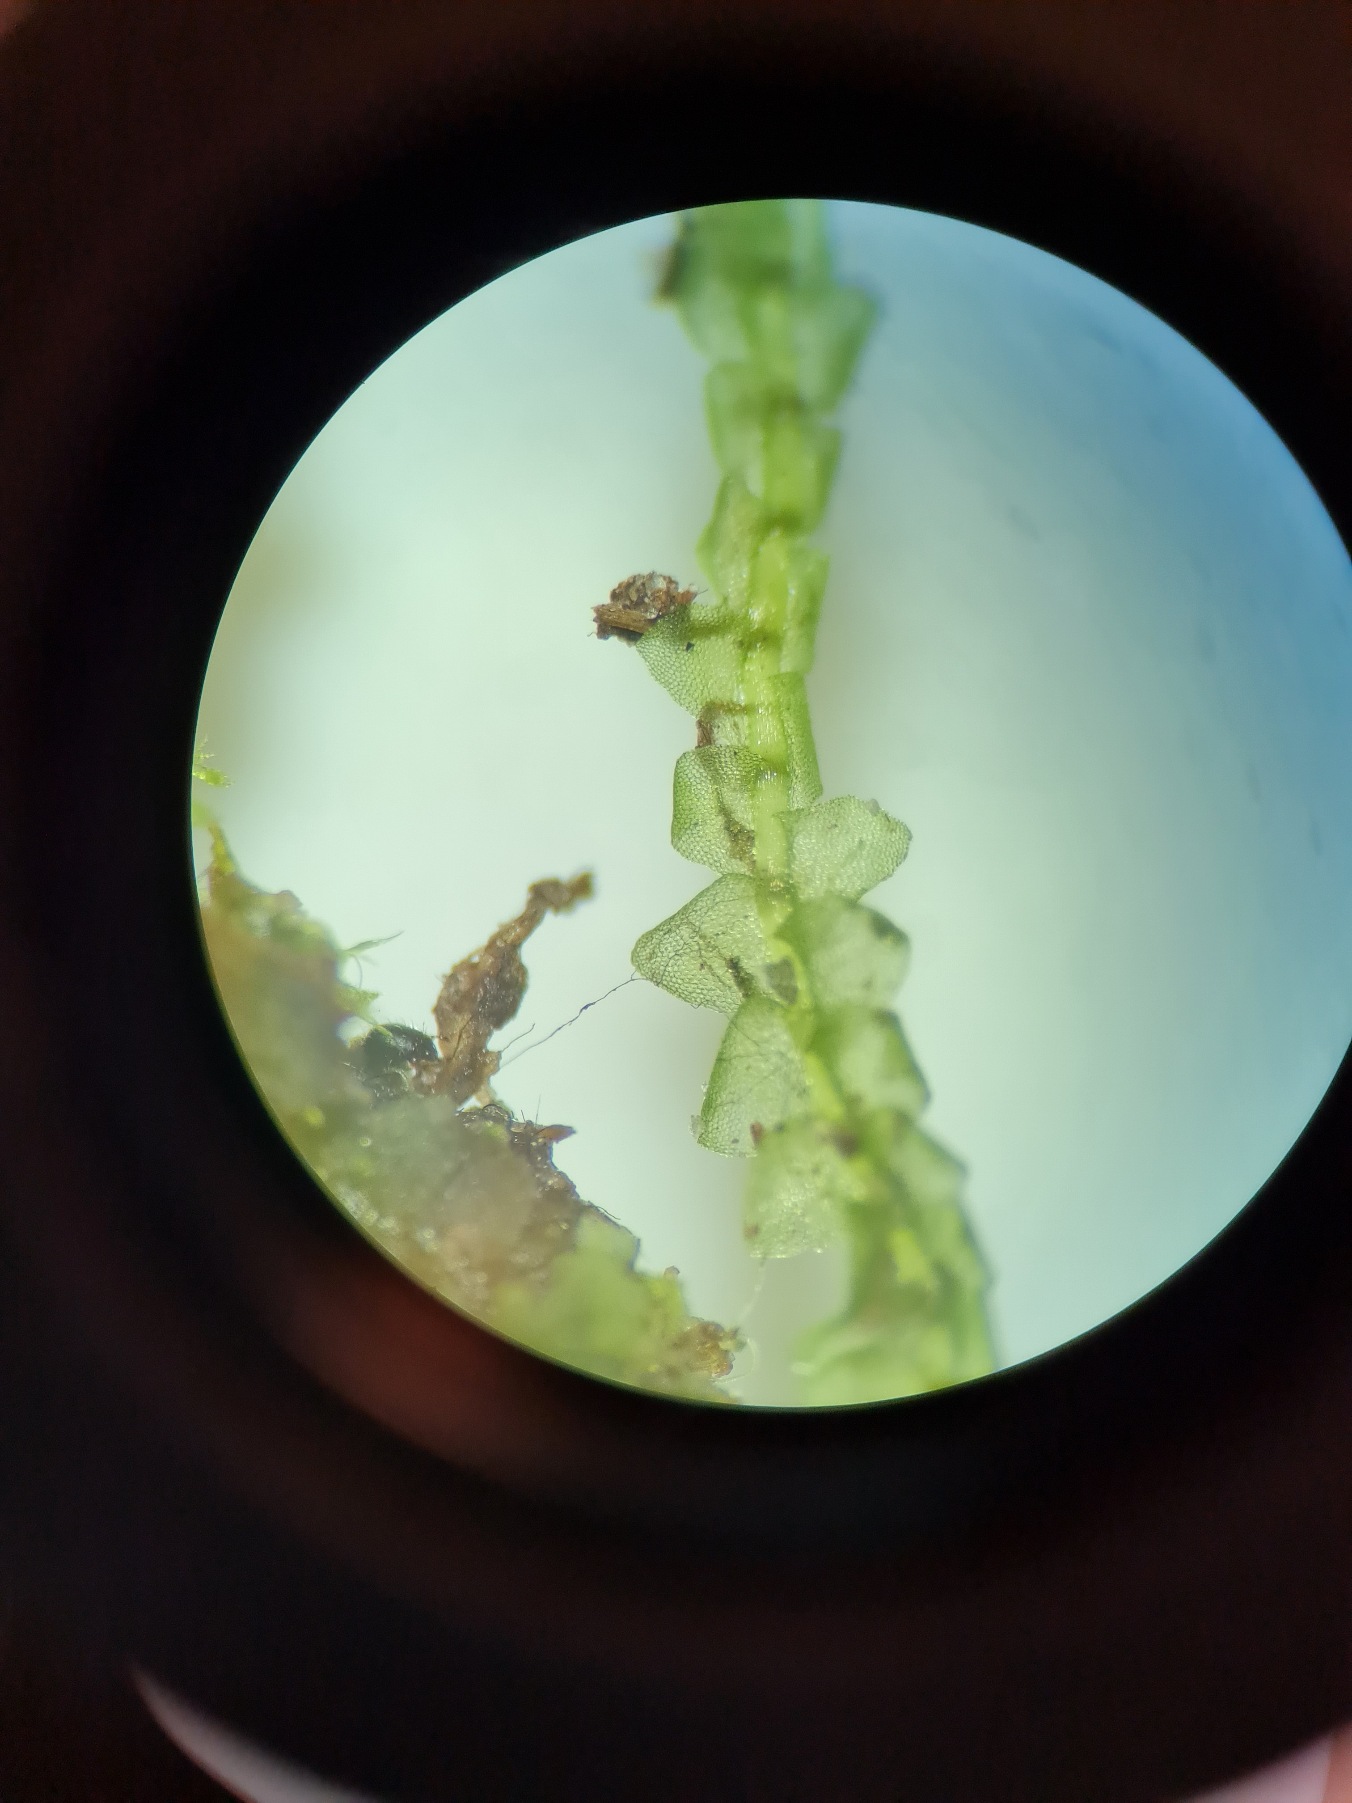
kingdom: Plantae
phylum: Marchantiophyta
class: Jungermanniopsida
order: Jungermanniales
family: Calypogeiaceae
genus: Calypogeia
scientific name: Calypogeia fissa
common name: Tvespidset sækmos
